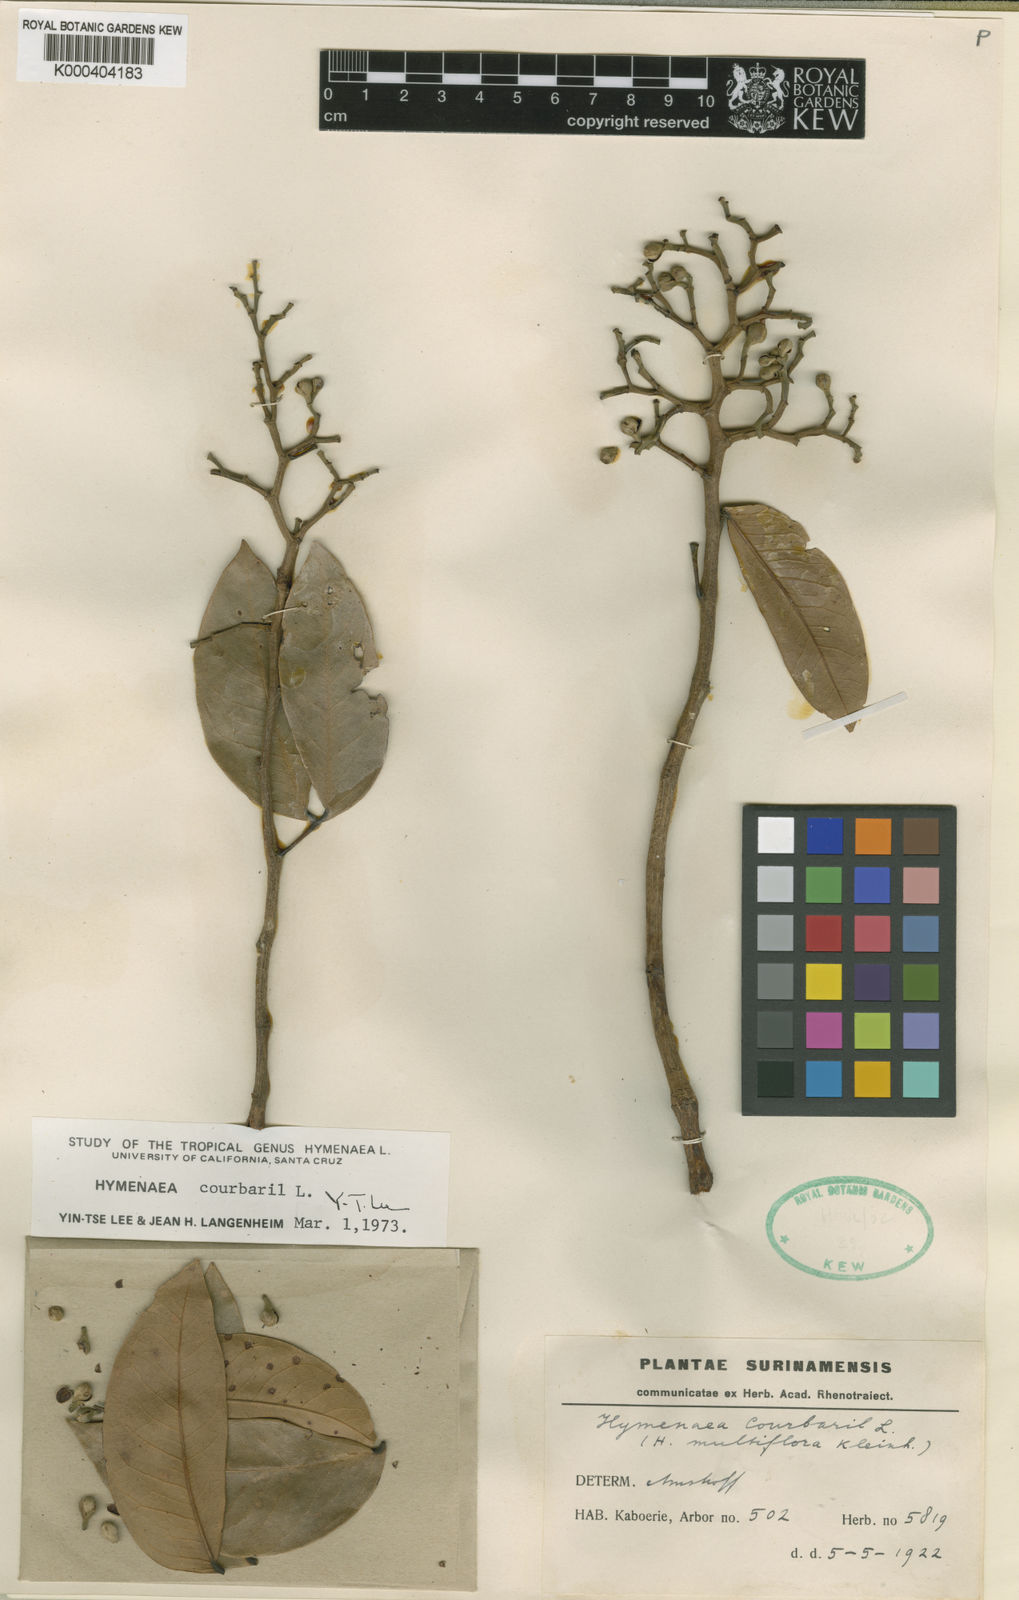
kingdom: Plantae
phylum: Tracheophyta
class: Magnoliopsida
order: Fabales
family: Fabaceae
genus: Hymenaea
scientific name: Hymenaea courbaril
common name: Brazilian copal
